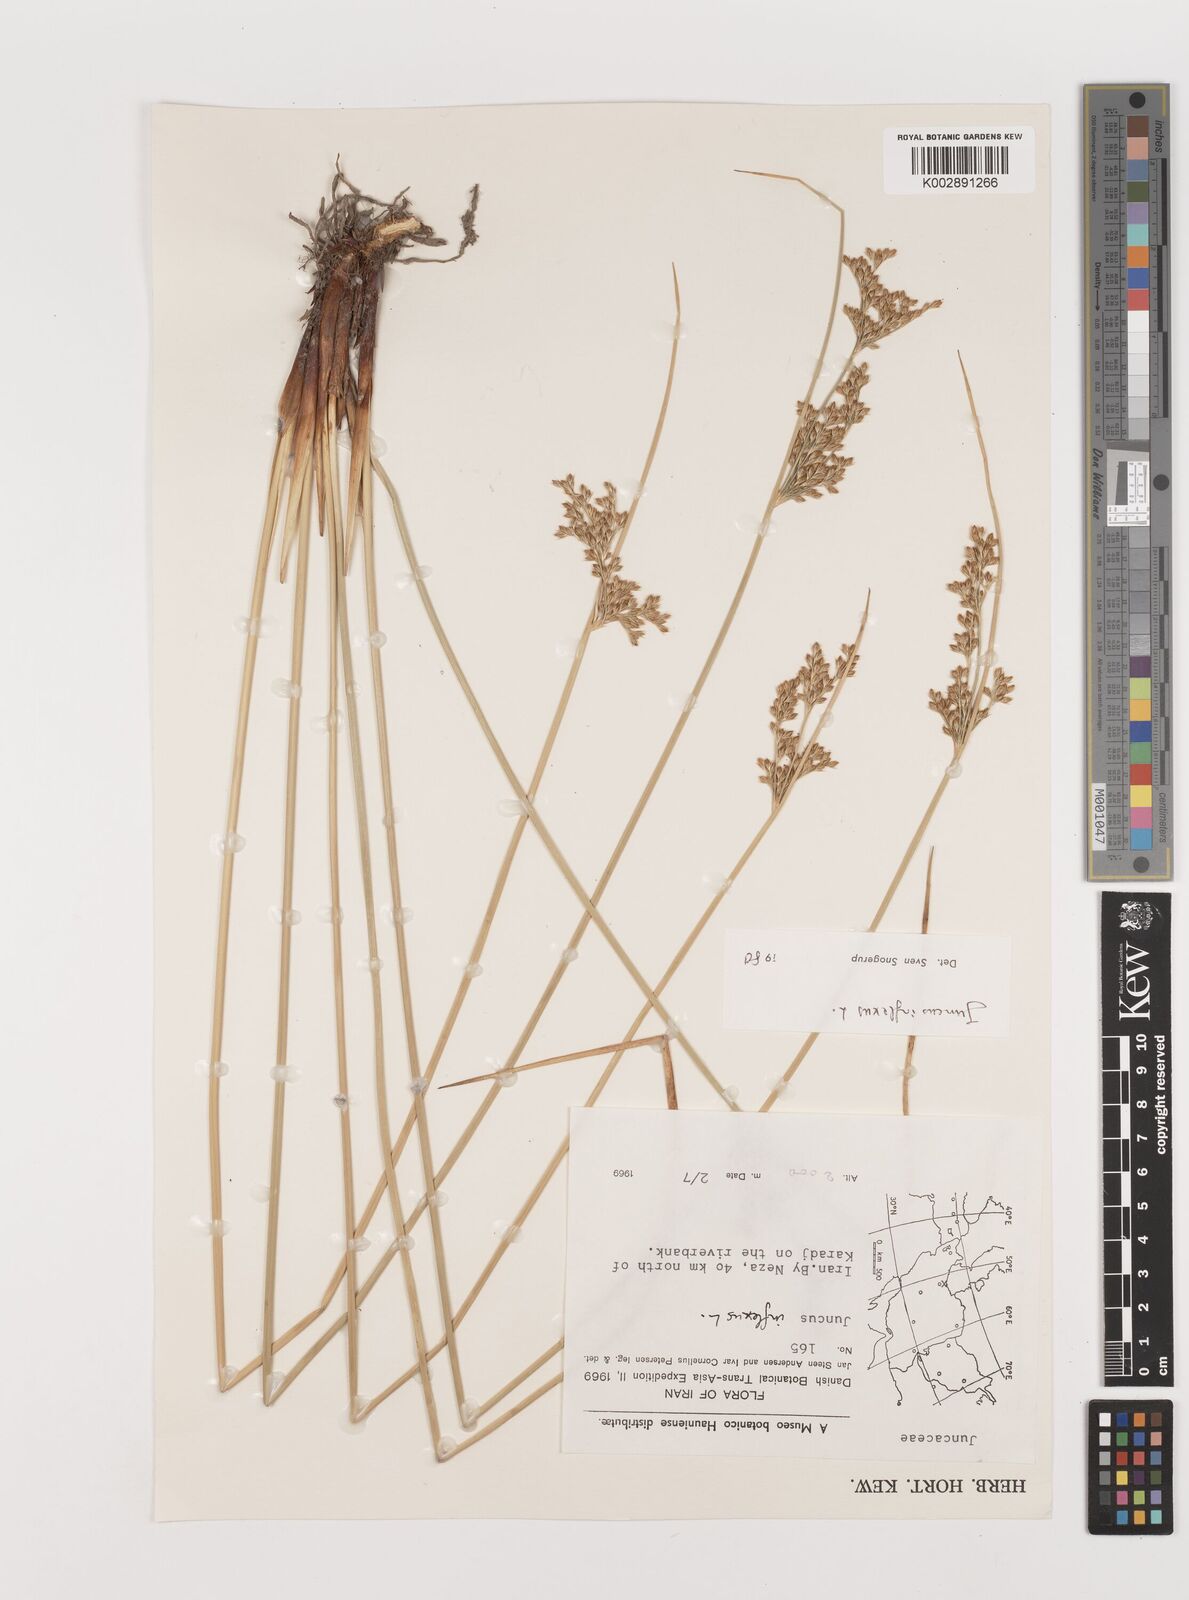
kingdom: Plantae
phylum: Tracheophyta
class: Liliopsida
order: Poales
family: Juncaceae
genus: Juncus
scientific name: Juncus inflexus
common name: Hard rush
